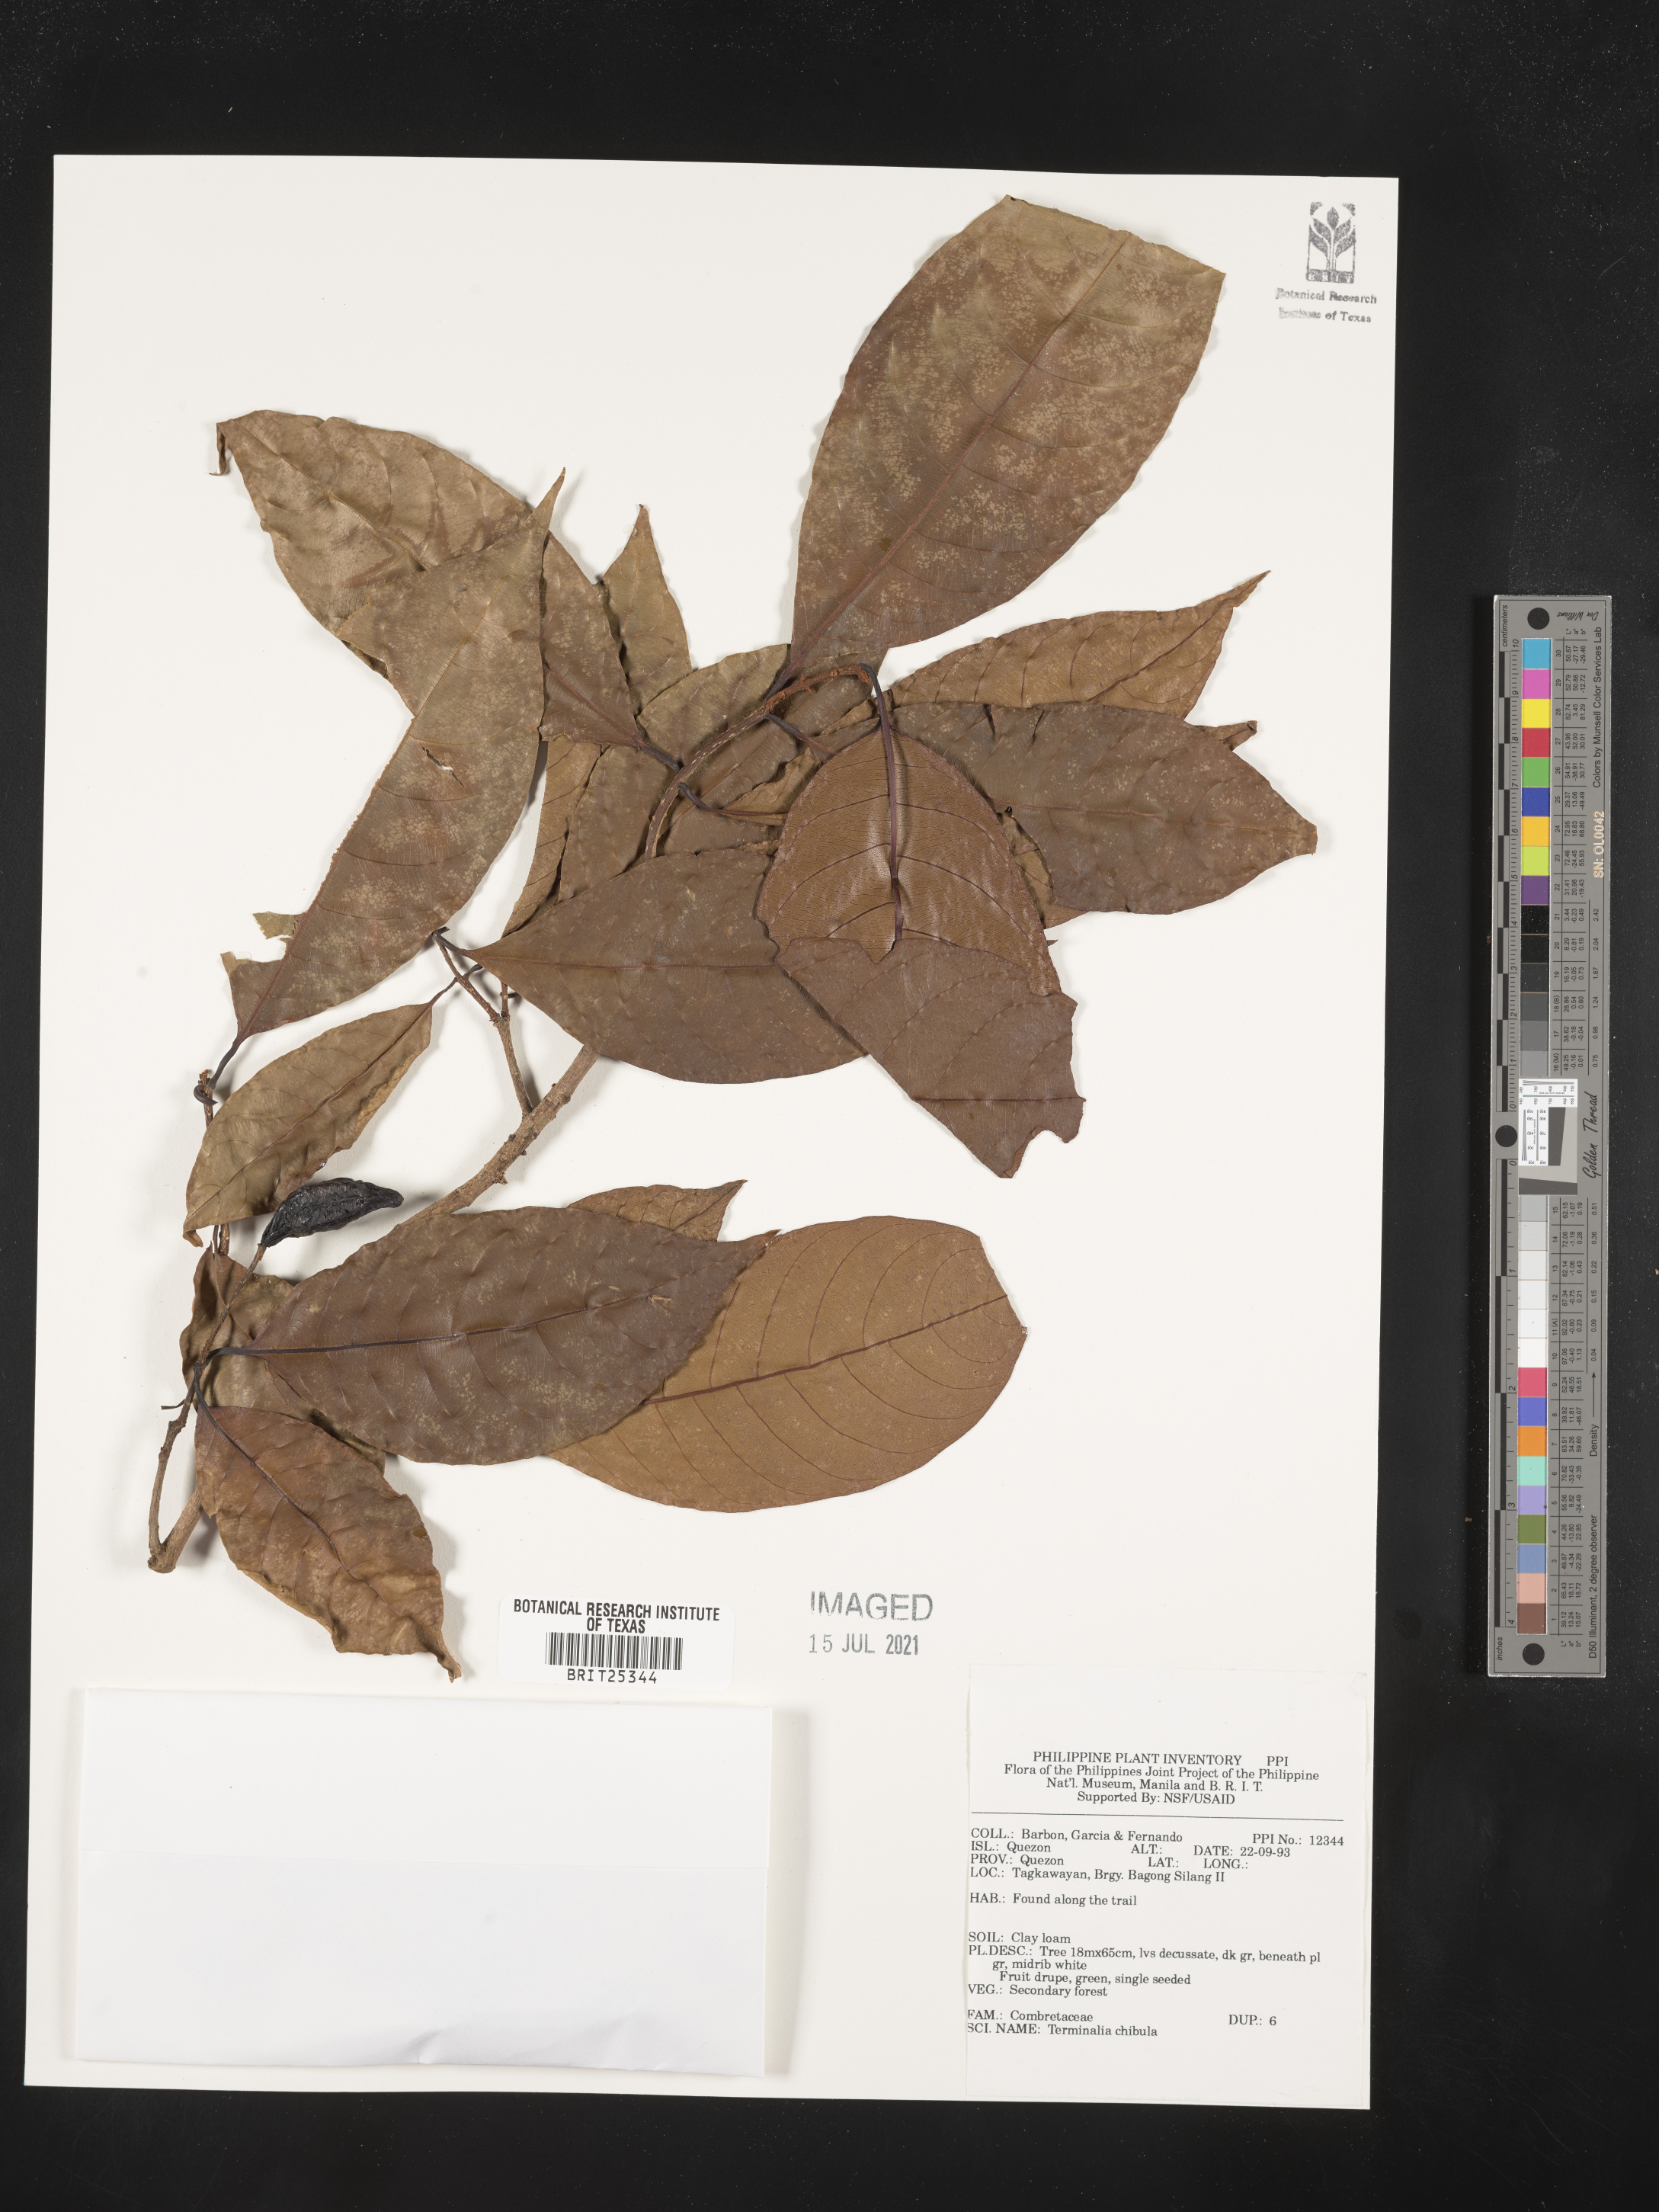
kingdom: Plantae
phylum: Tracheophyta
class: Magnoliopsida
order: Myrtales
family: Combretaceae
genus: Terminalia
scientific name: Terminalia chebula
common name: Myrobalan
